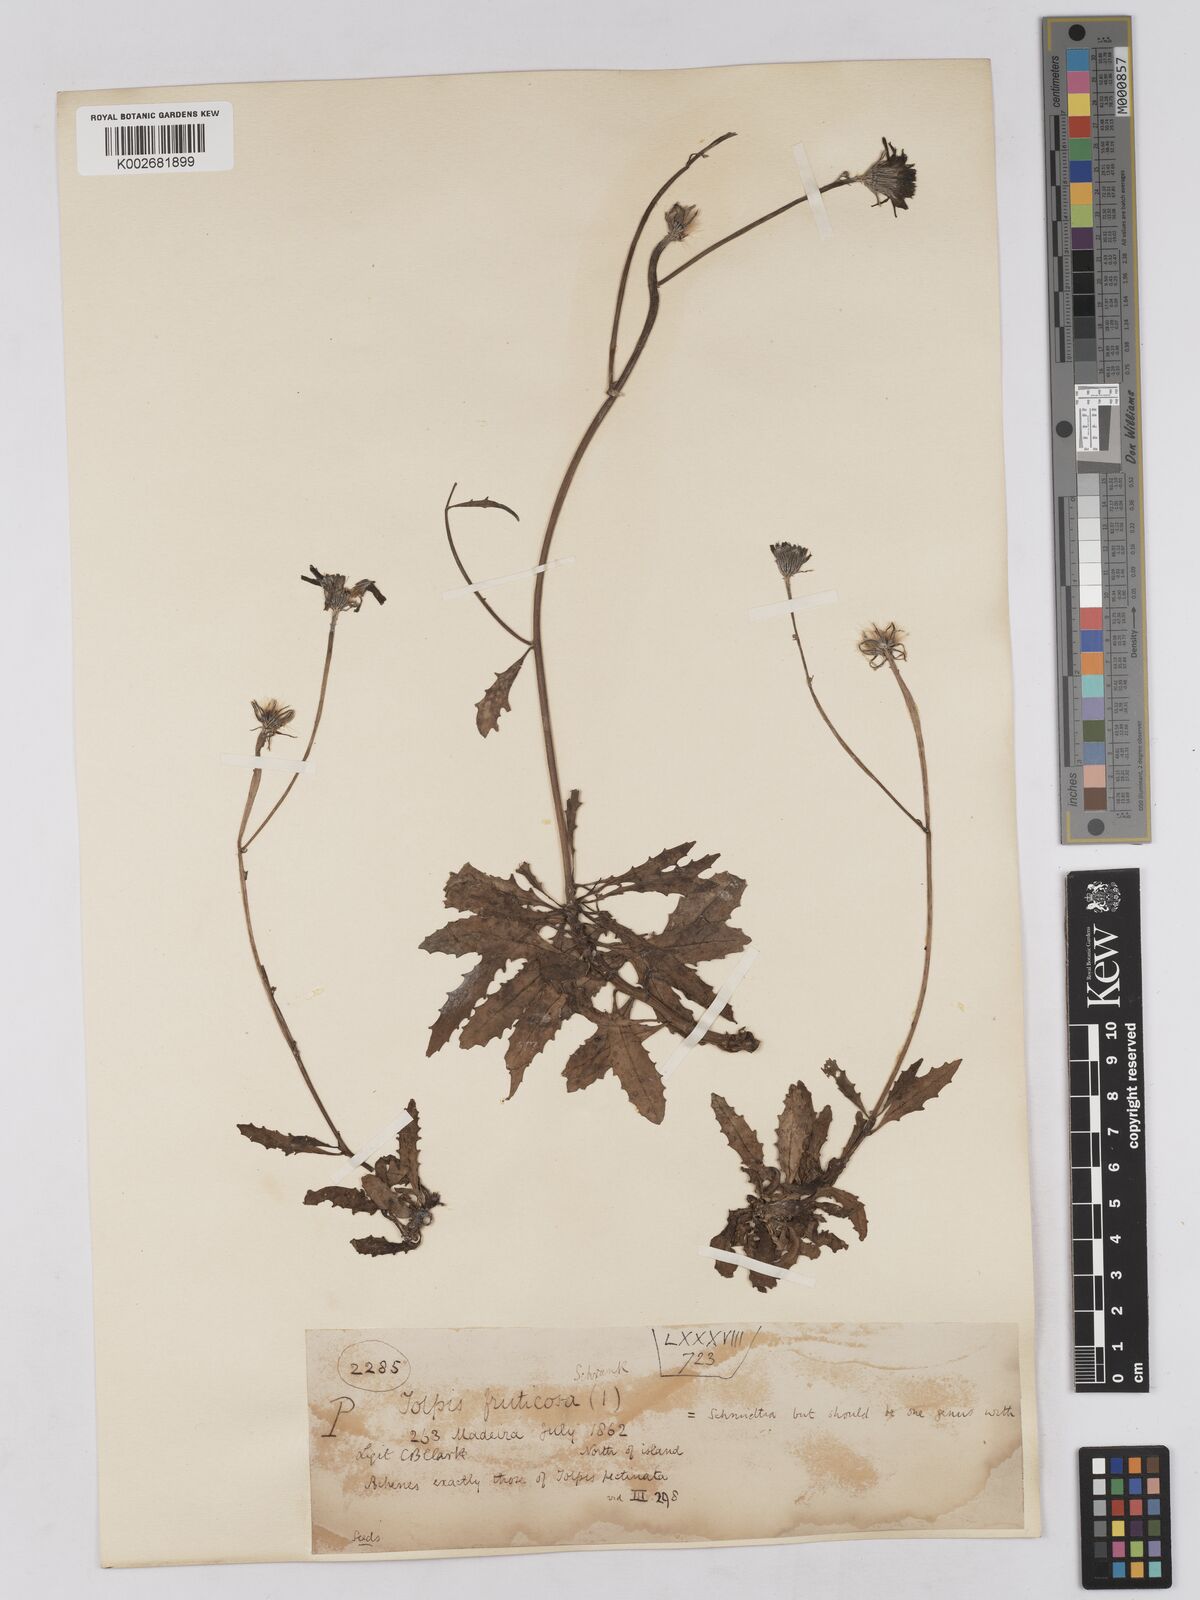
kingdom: Plantae
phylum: Tracheophyta
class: Magnoliopsida
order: Asterales
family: Asteraceae
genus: Tolpis
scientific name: Tolpis succulenta
